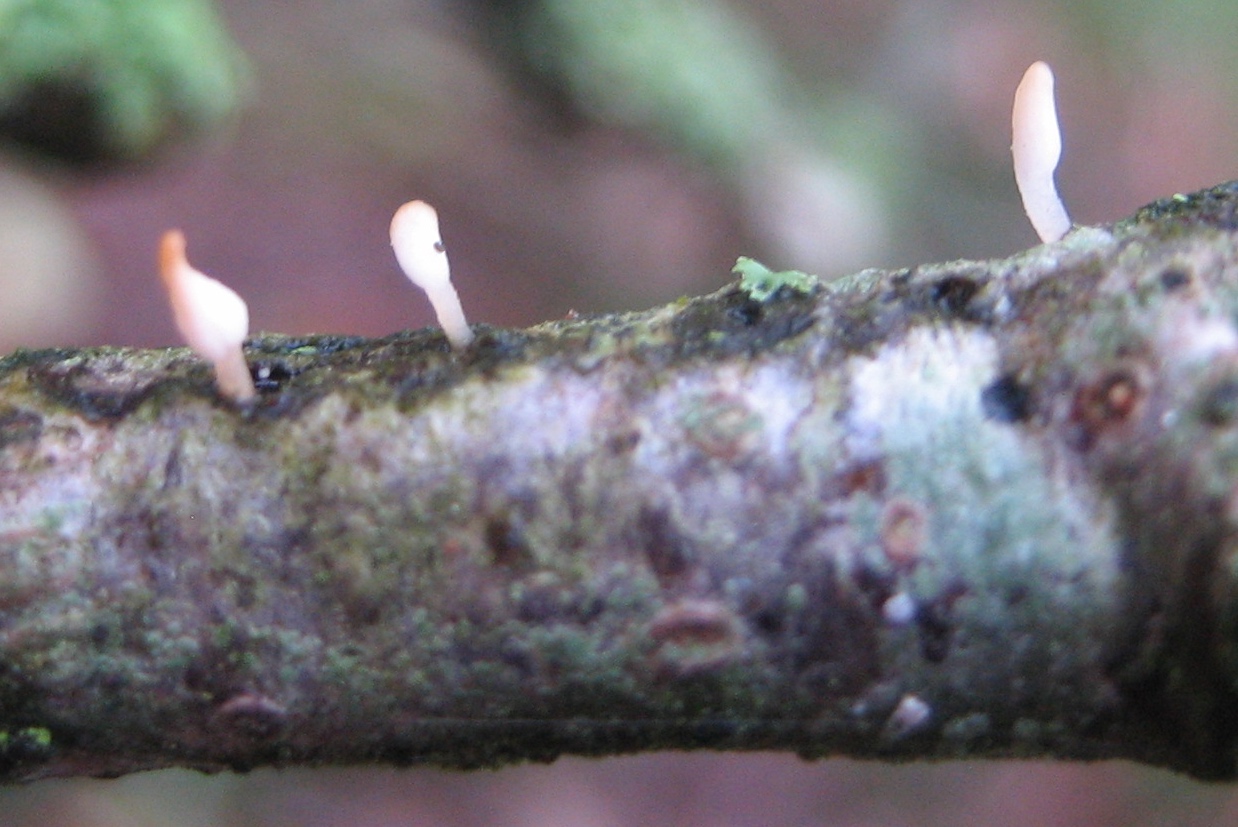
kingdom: Fungi
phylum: Basidiomycota
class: Agaricomycetes
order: Agaricales
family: Typhulaceae
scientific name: Typhulaceae
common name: trådkøllefamilien
